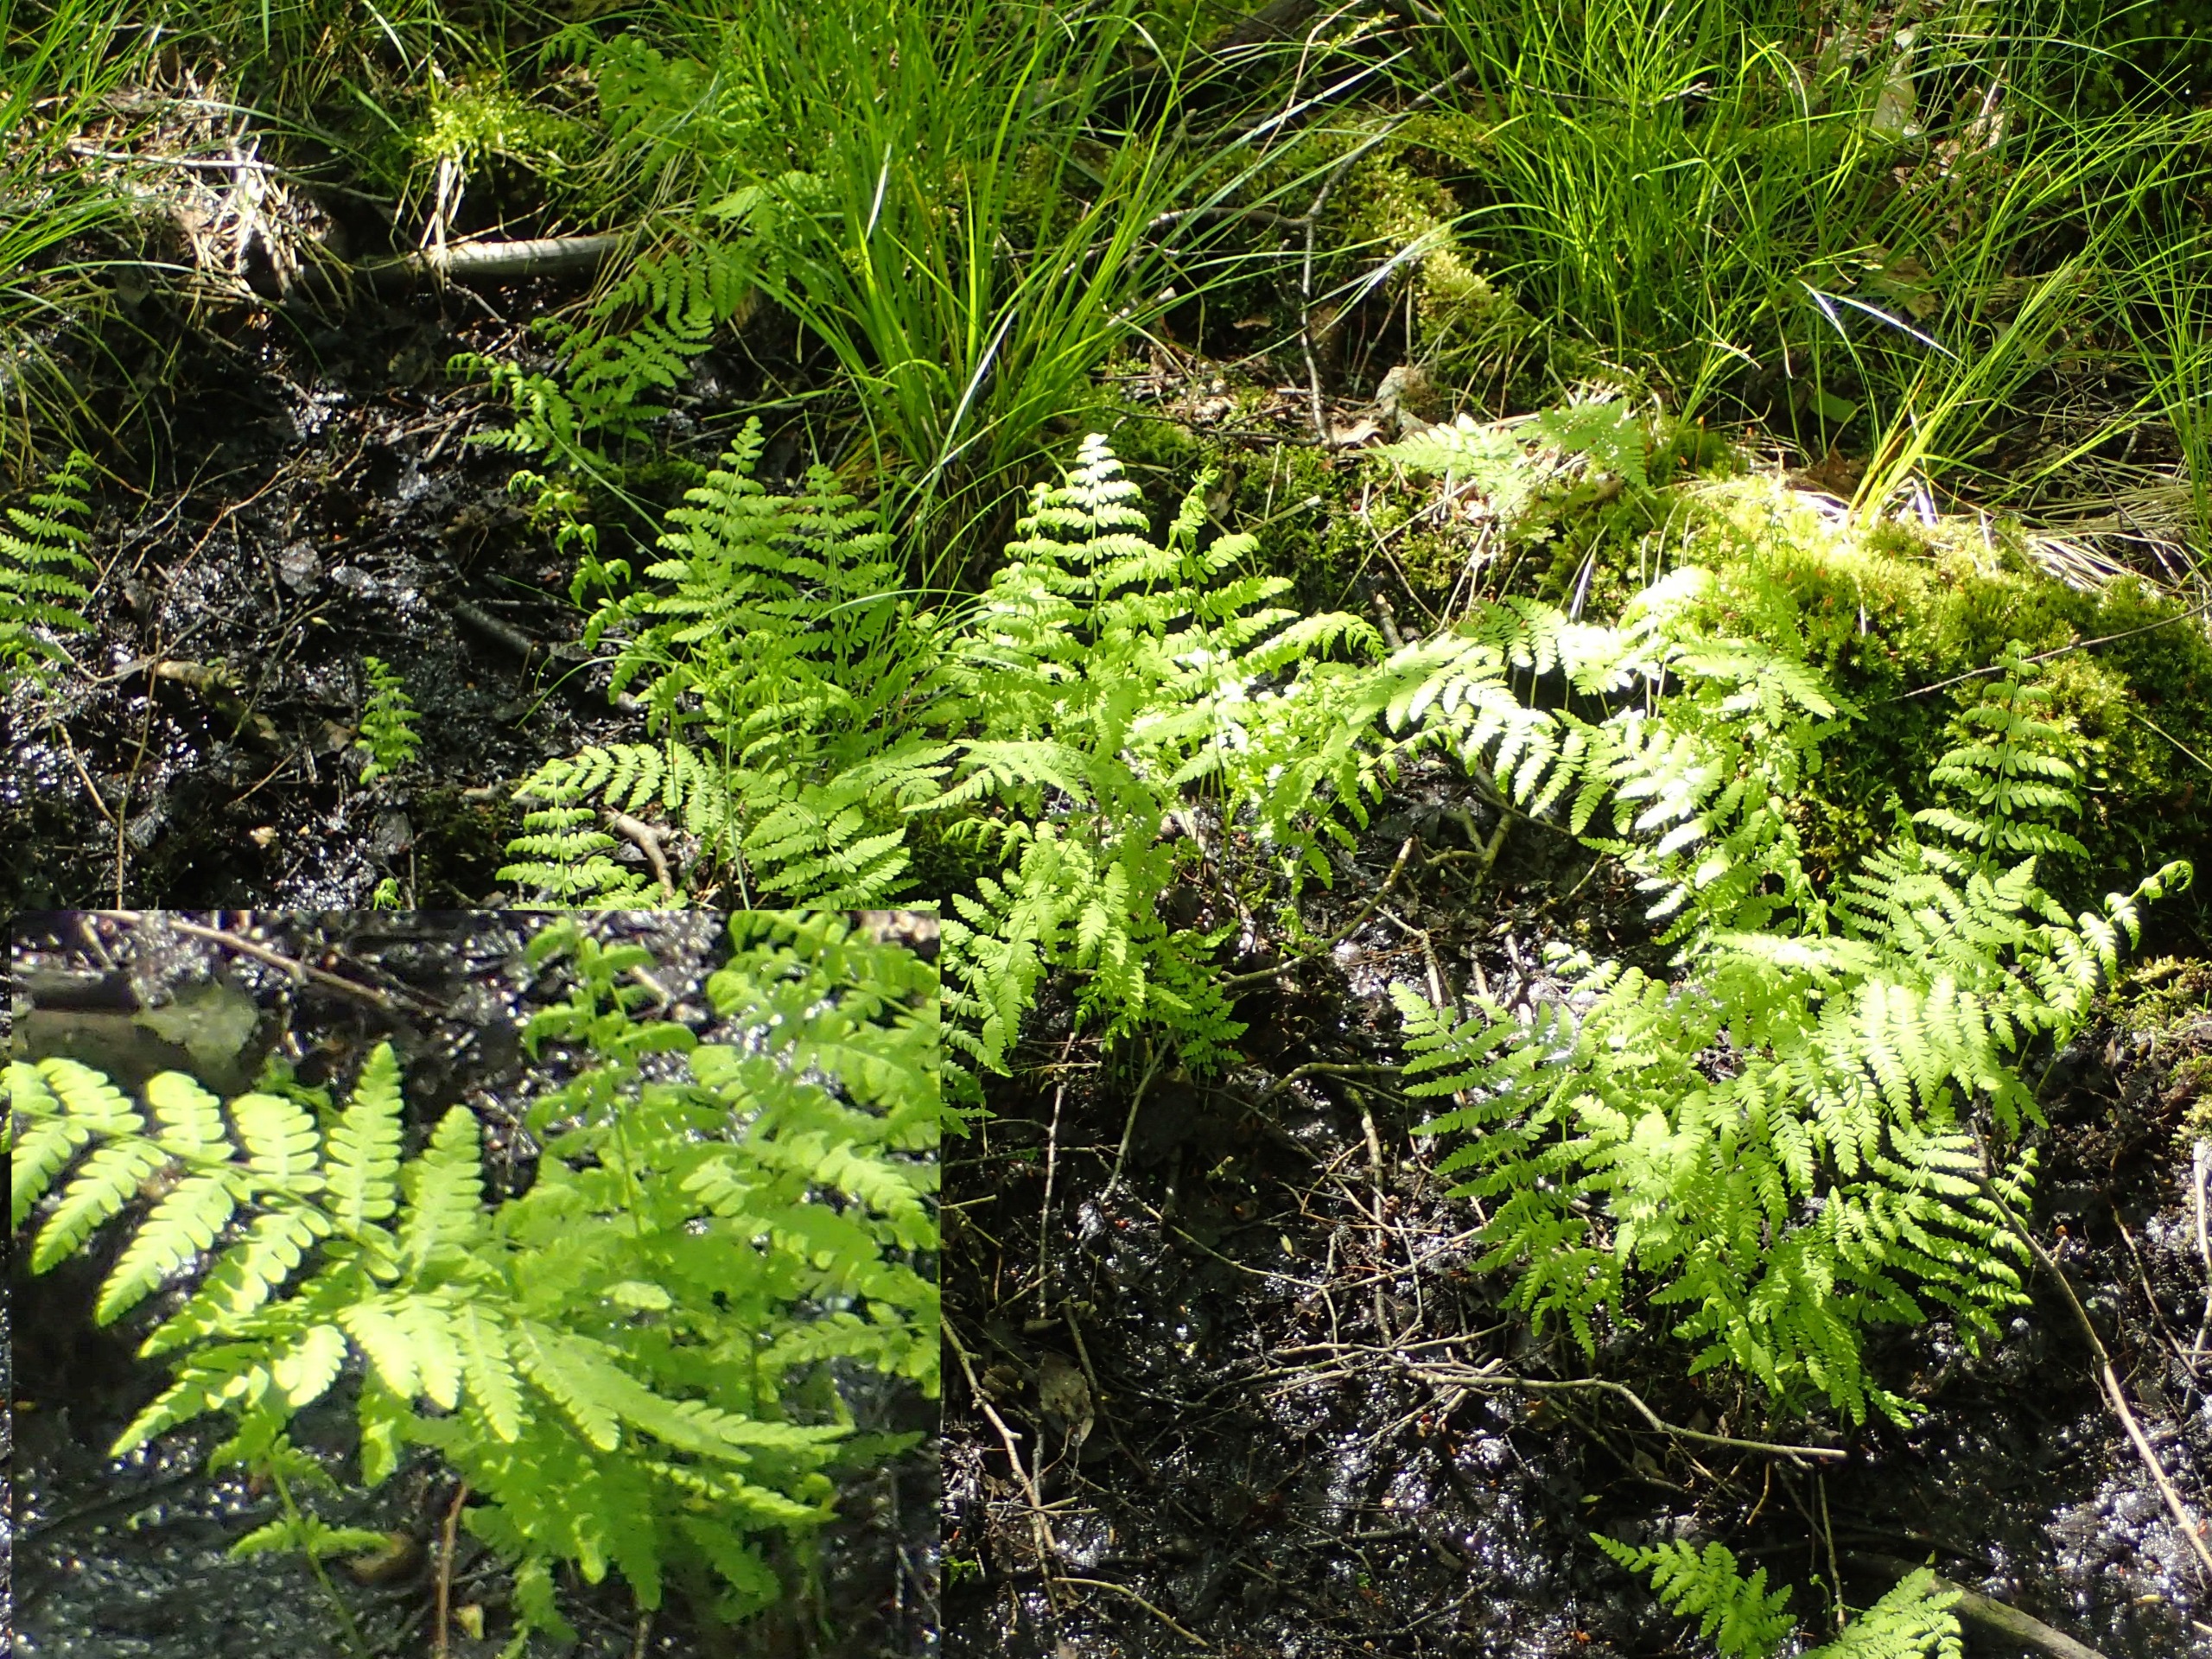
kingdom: Plantae
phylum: Tracheophyta
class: Polypodiopsida
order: Polypodiales
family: Thelypteridaceae
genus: Thelypteris
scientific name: Thelypteris palustris
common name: Kærmangeløv
